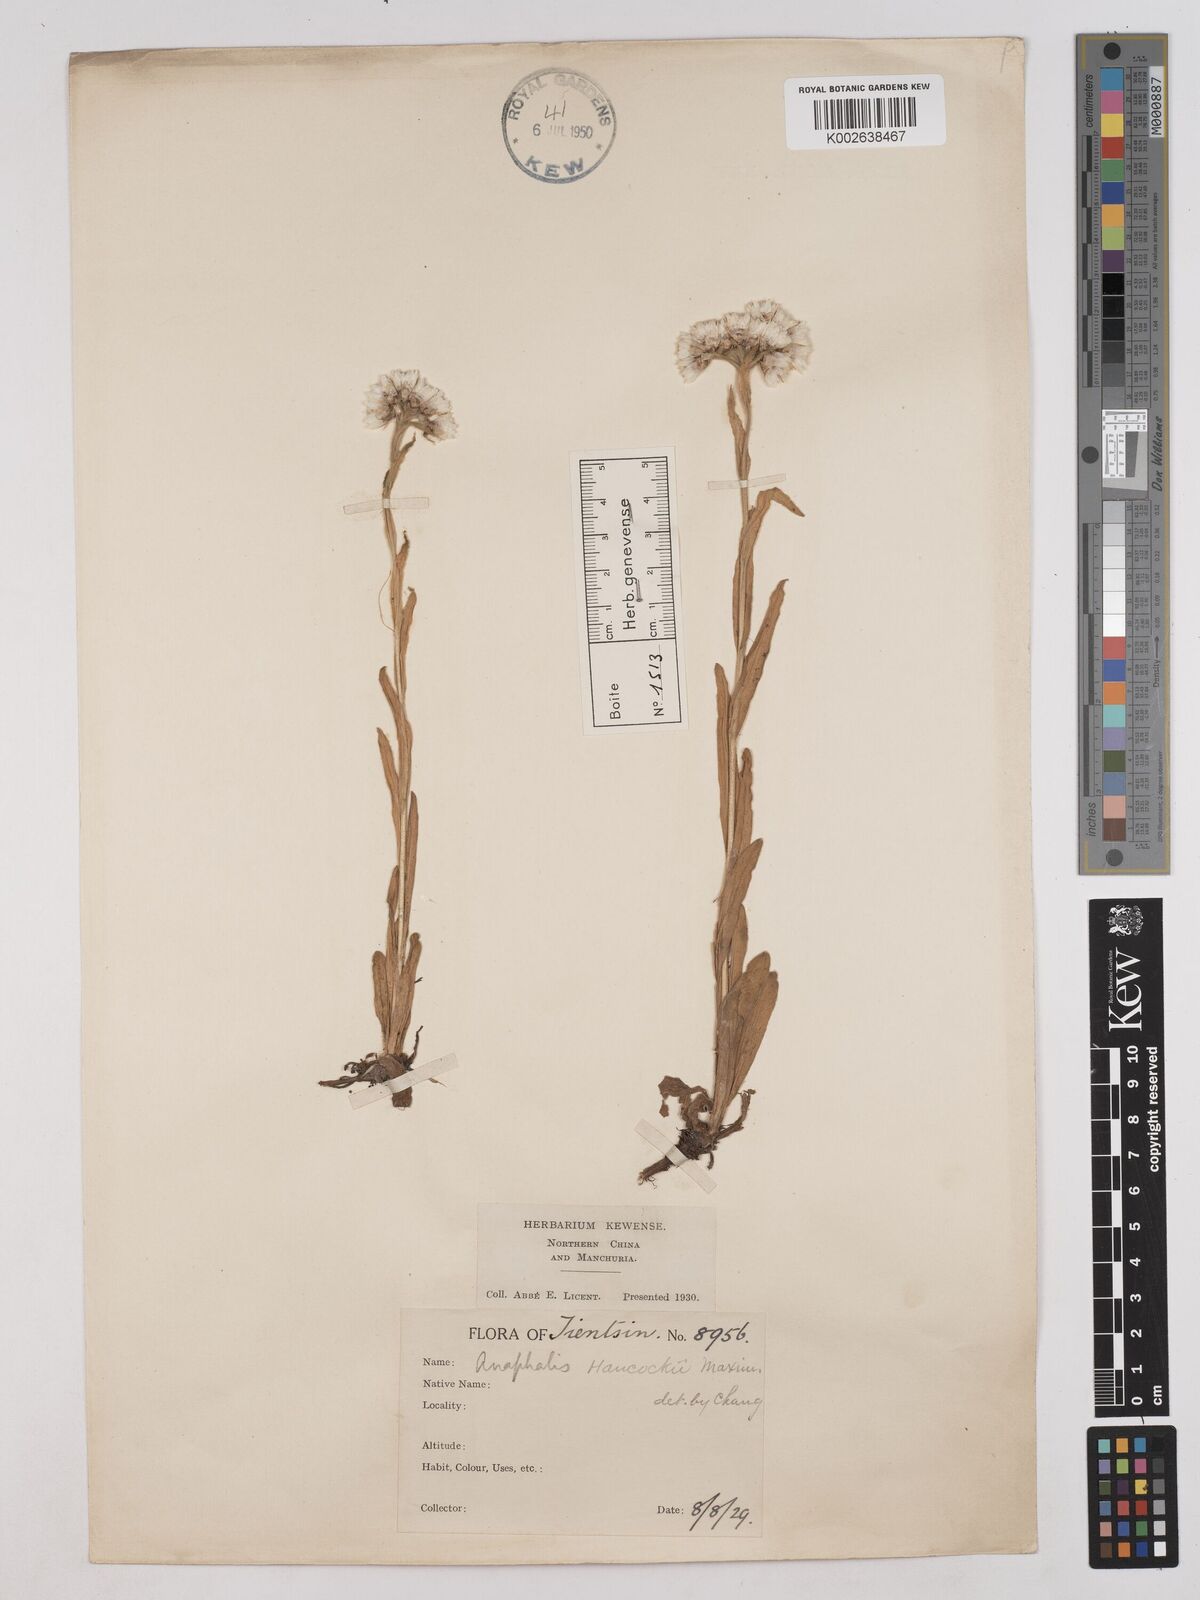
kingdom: Plantae
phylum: Tracheophyta
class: Magnoliopsida
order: Asterales
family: Asteraceae
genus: Anaphalis
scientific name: Anaphalis hancockii
